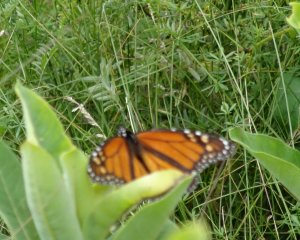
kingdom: Animalia
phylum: Arthropoda
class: Insecta
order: Lepidoptera
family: Nymphalidae
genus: Danaus
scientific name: Danaus plexippus
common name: Monarch
